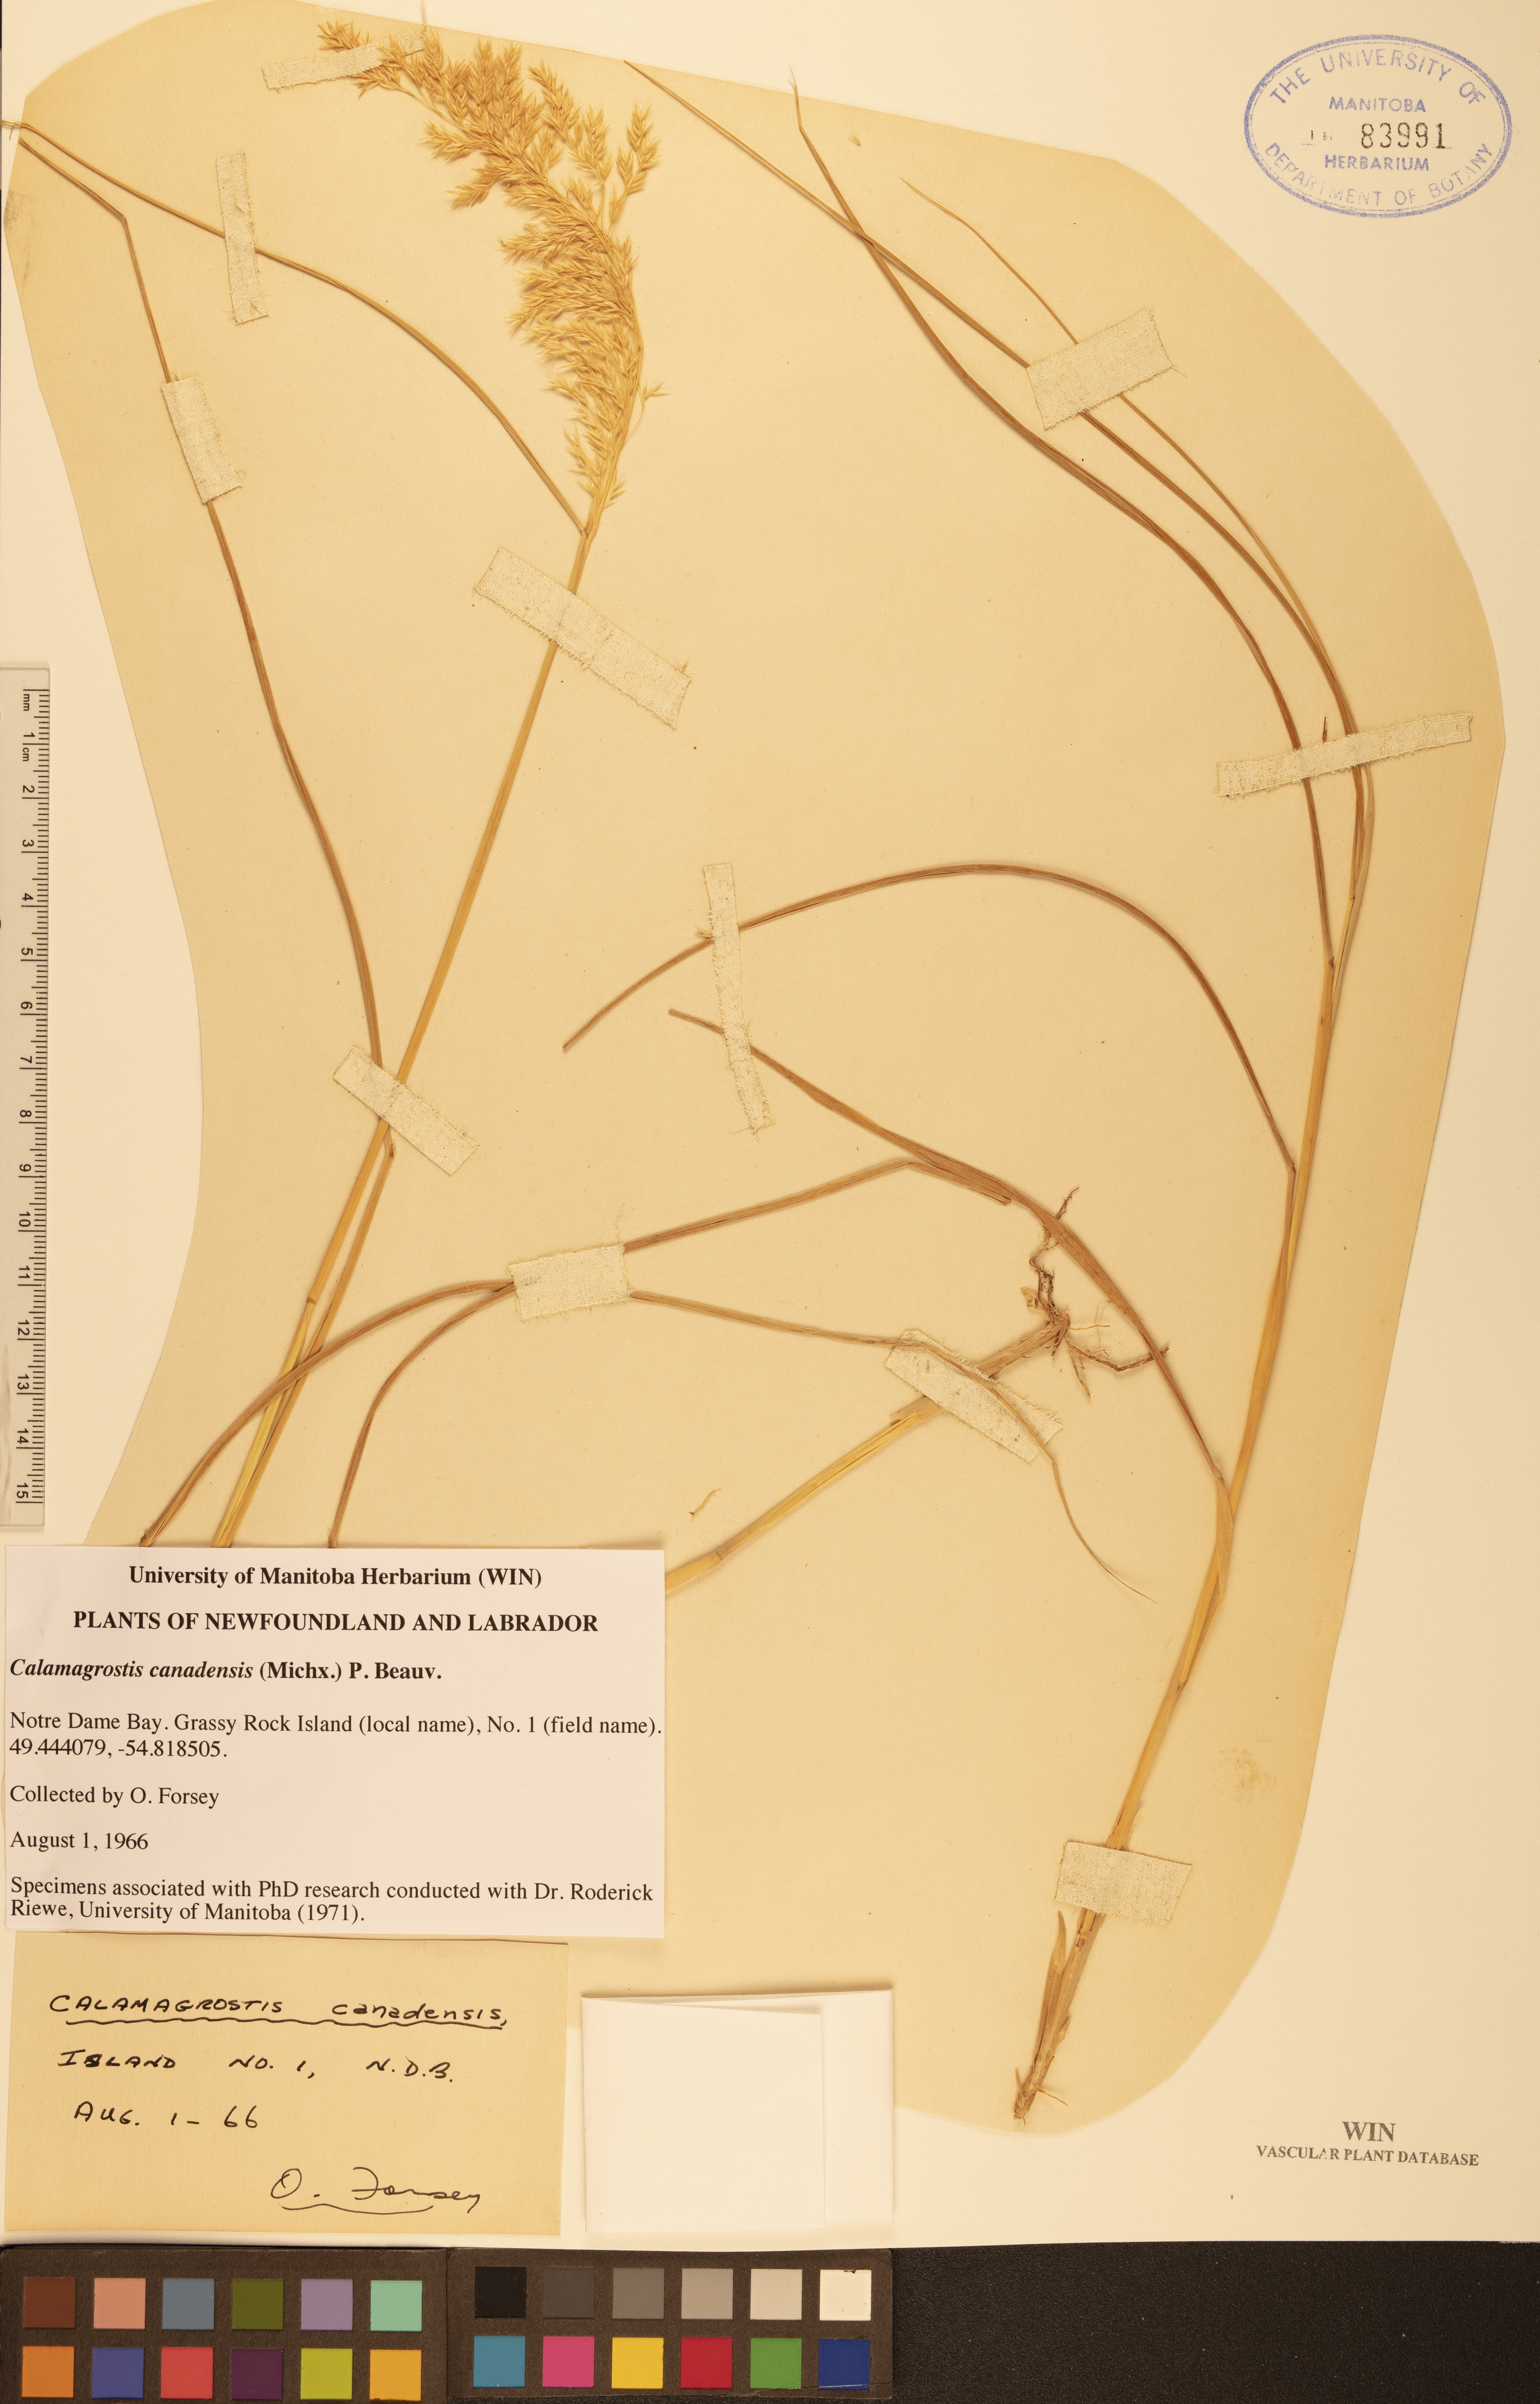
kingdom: Plantae
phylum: Tracheophyta
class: Liliopsida
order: Poales
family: Poaceae
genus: Calamagrostis
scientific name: Calamagrostis canadensis
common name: Canada bluejoint
